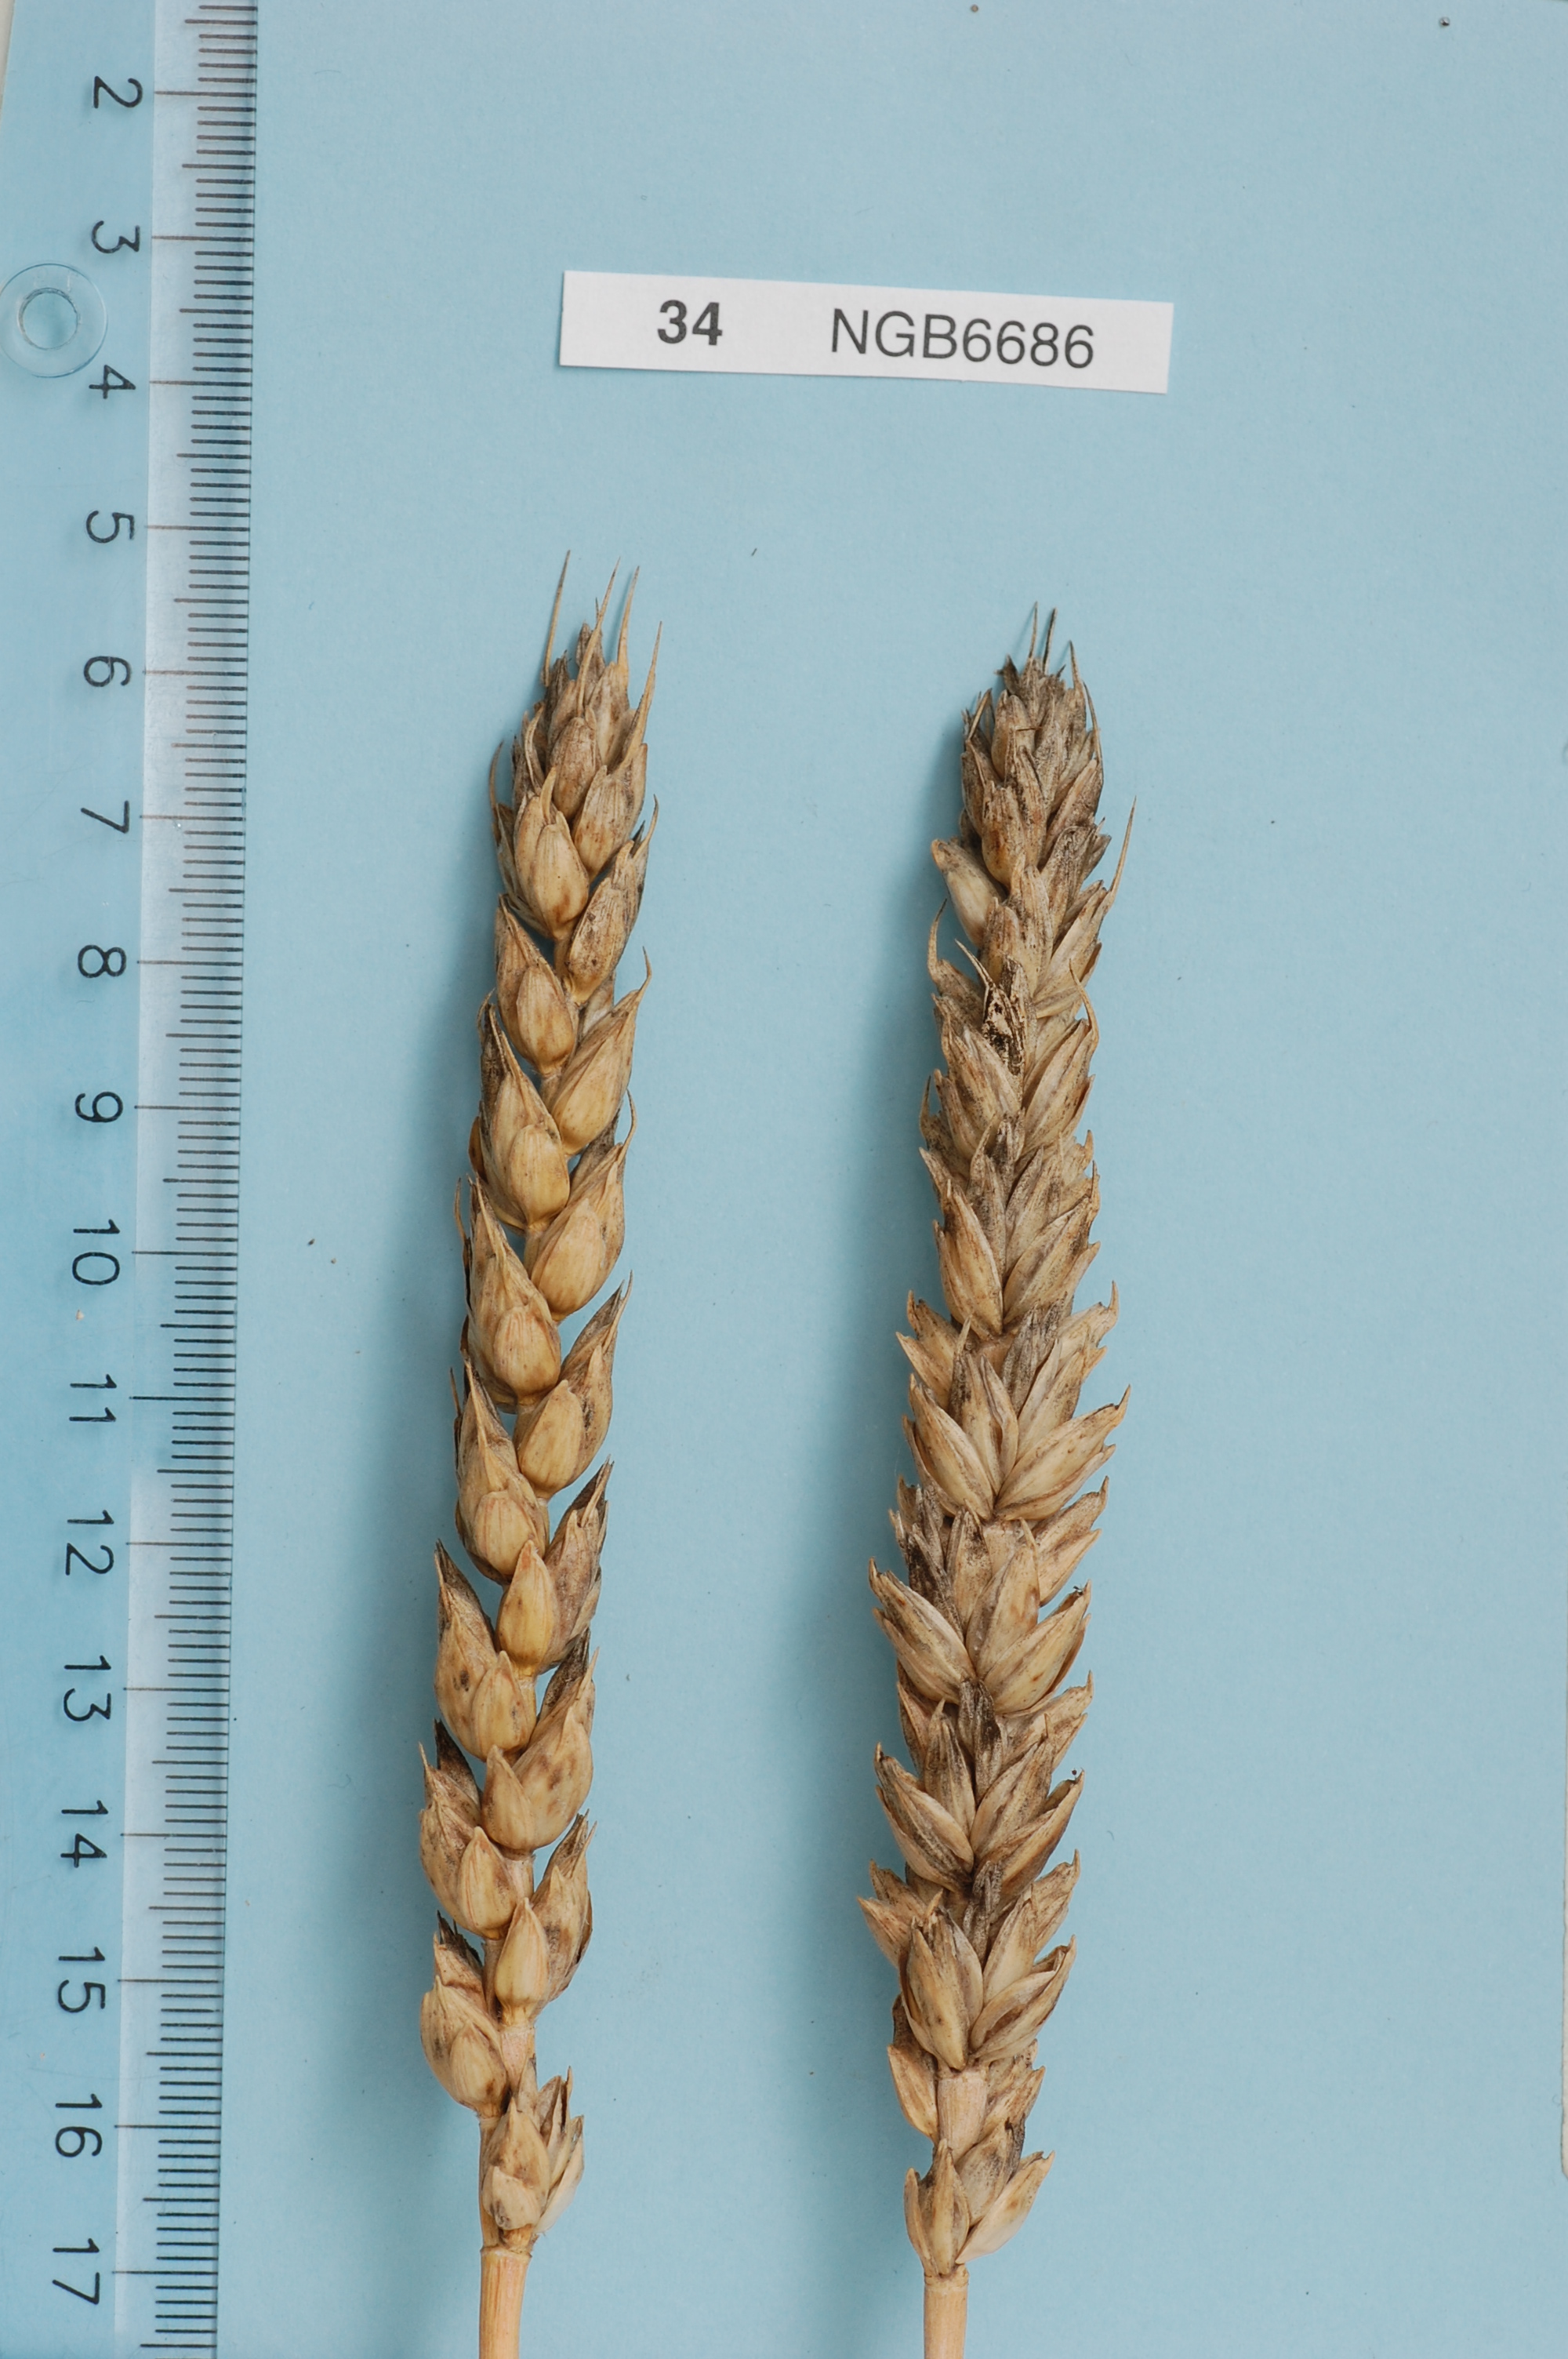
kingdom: Plantae
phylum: Tracheophyta
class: Liliopsida
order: Poales
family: Poaceae
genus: Triticum
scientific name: Triticum aestivum
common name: Common wheat
